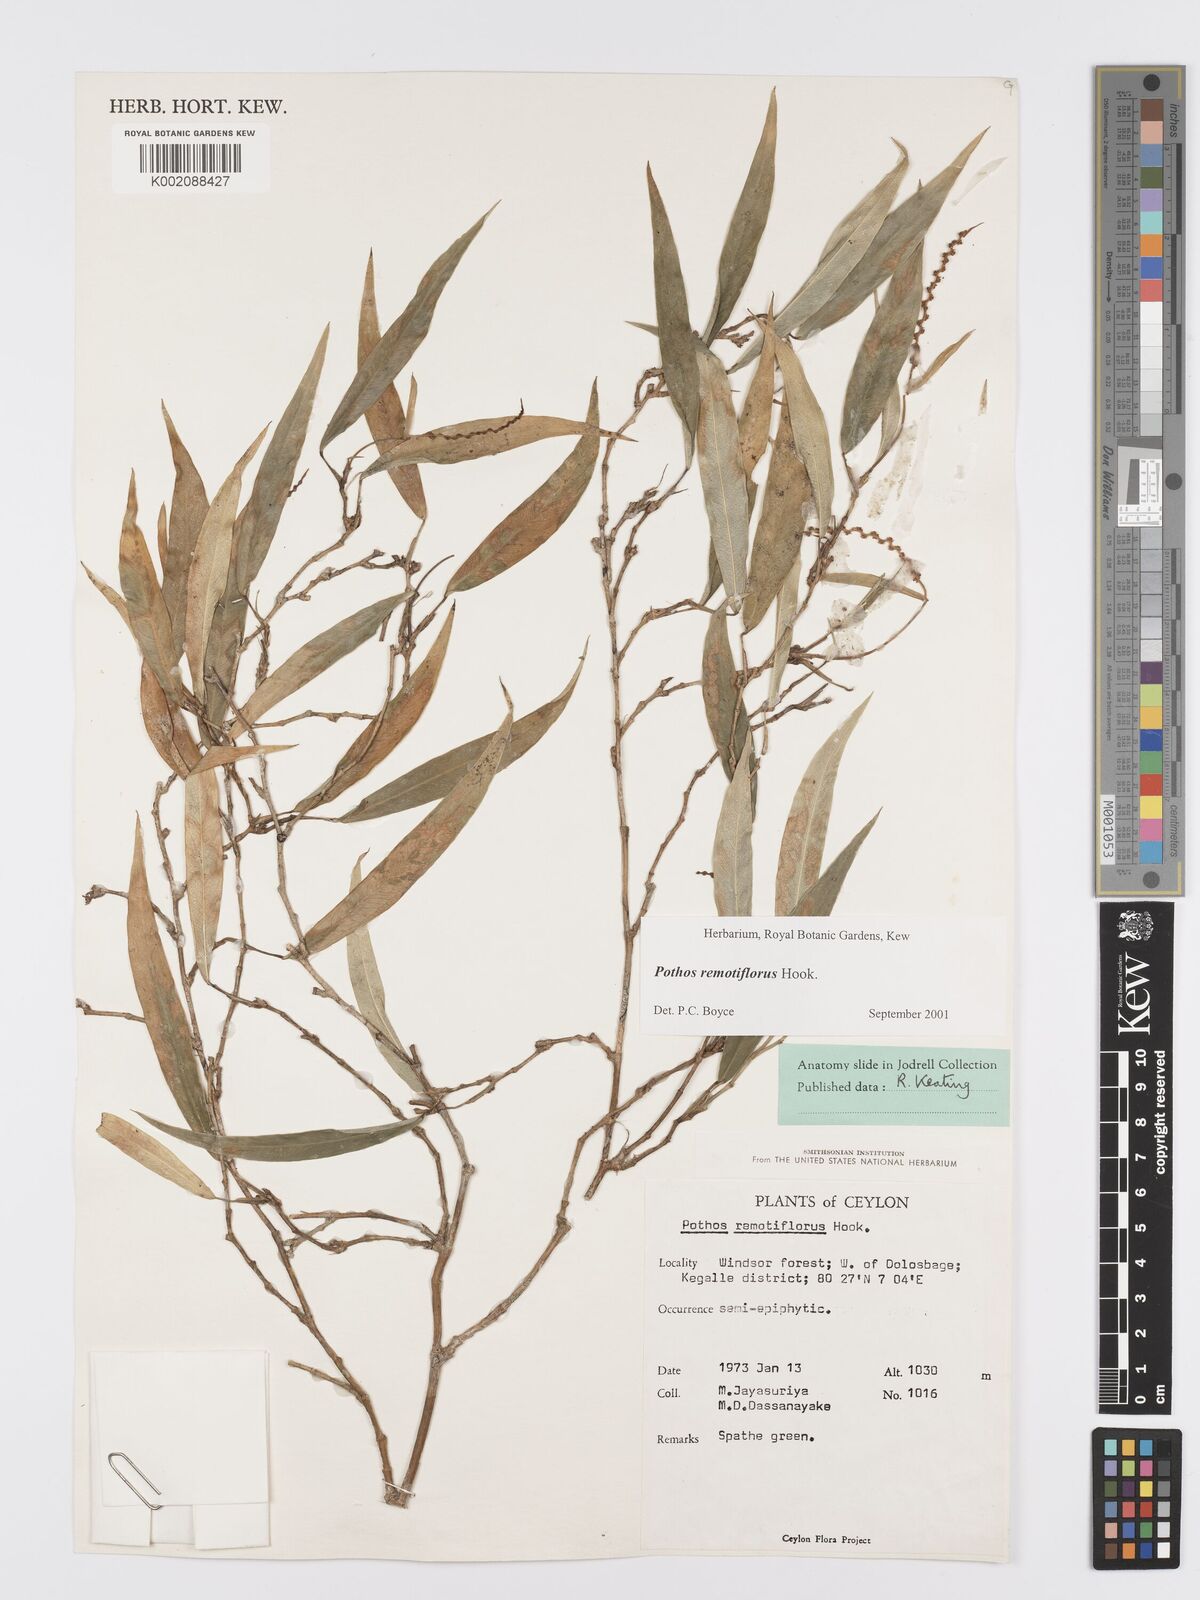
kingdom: Plantae
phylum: Tracheophyta
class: Liliopsida
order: Alismatales
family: Araceae
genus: Pothos
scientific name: Pothos remotiflorus
